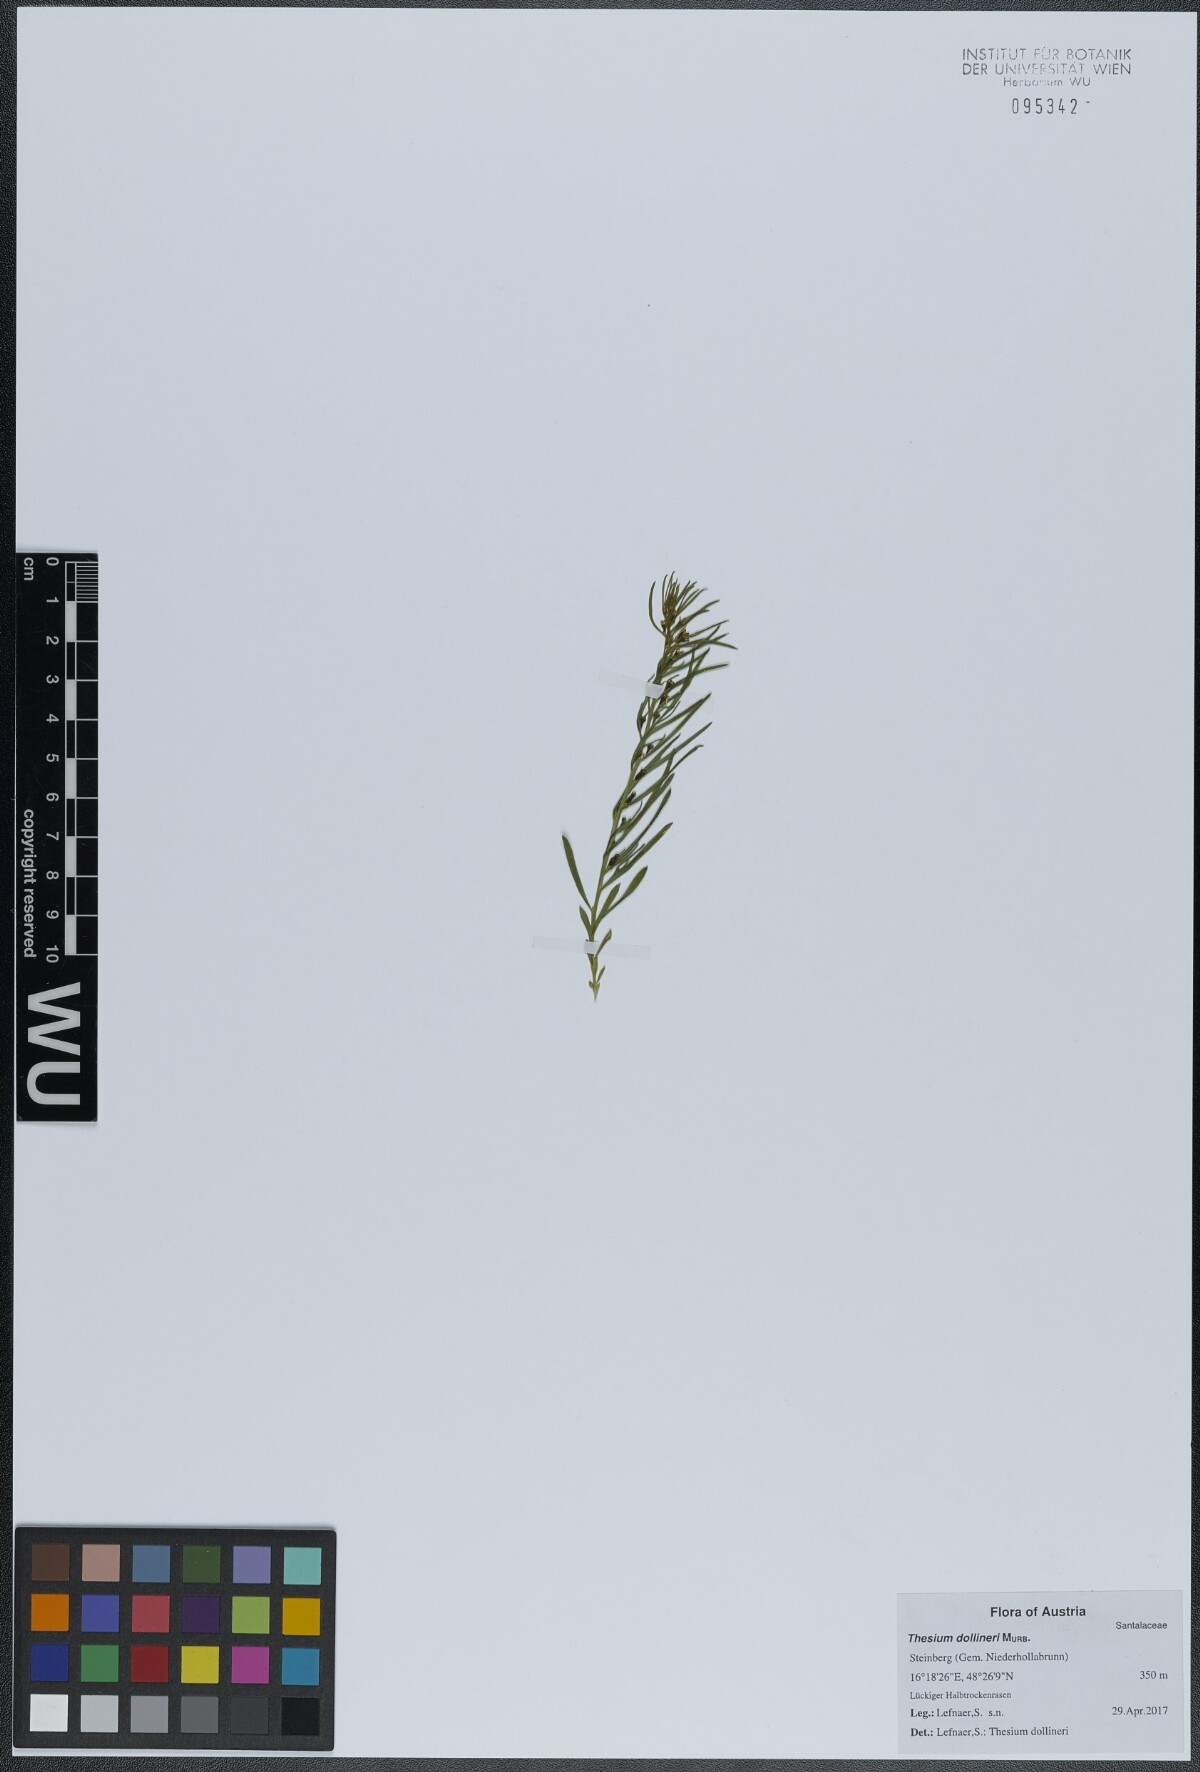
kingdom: Plantae
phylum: Tracheophyta
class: Magnoliopsida
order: Santalales
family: Thesiaceae
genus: Thesium
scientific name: Thesium dollineri
